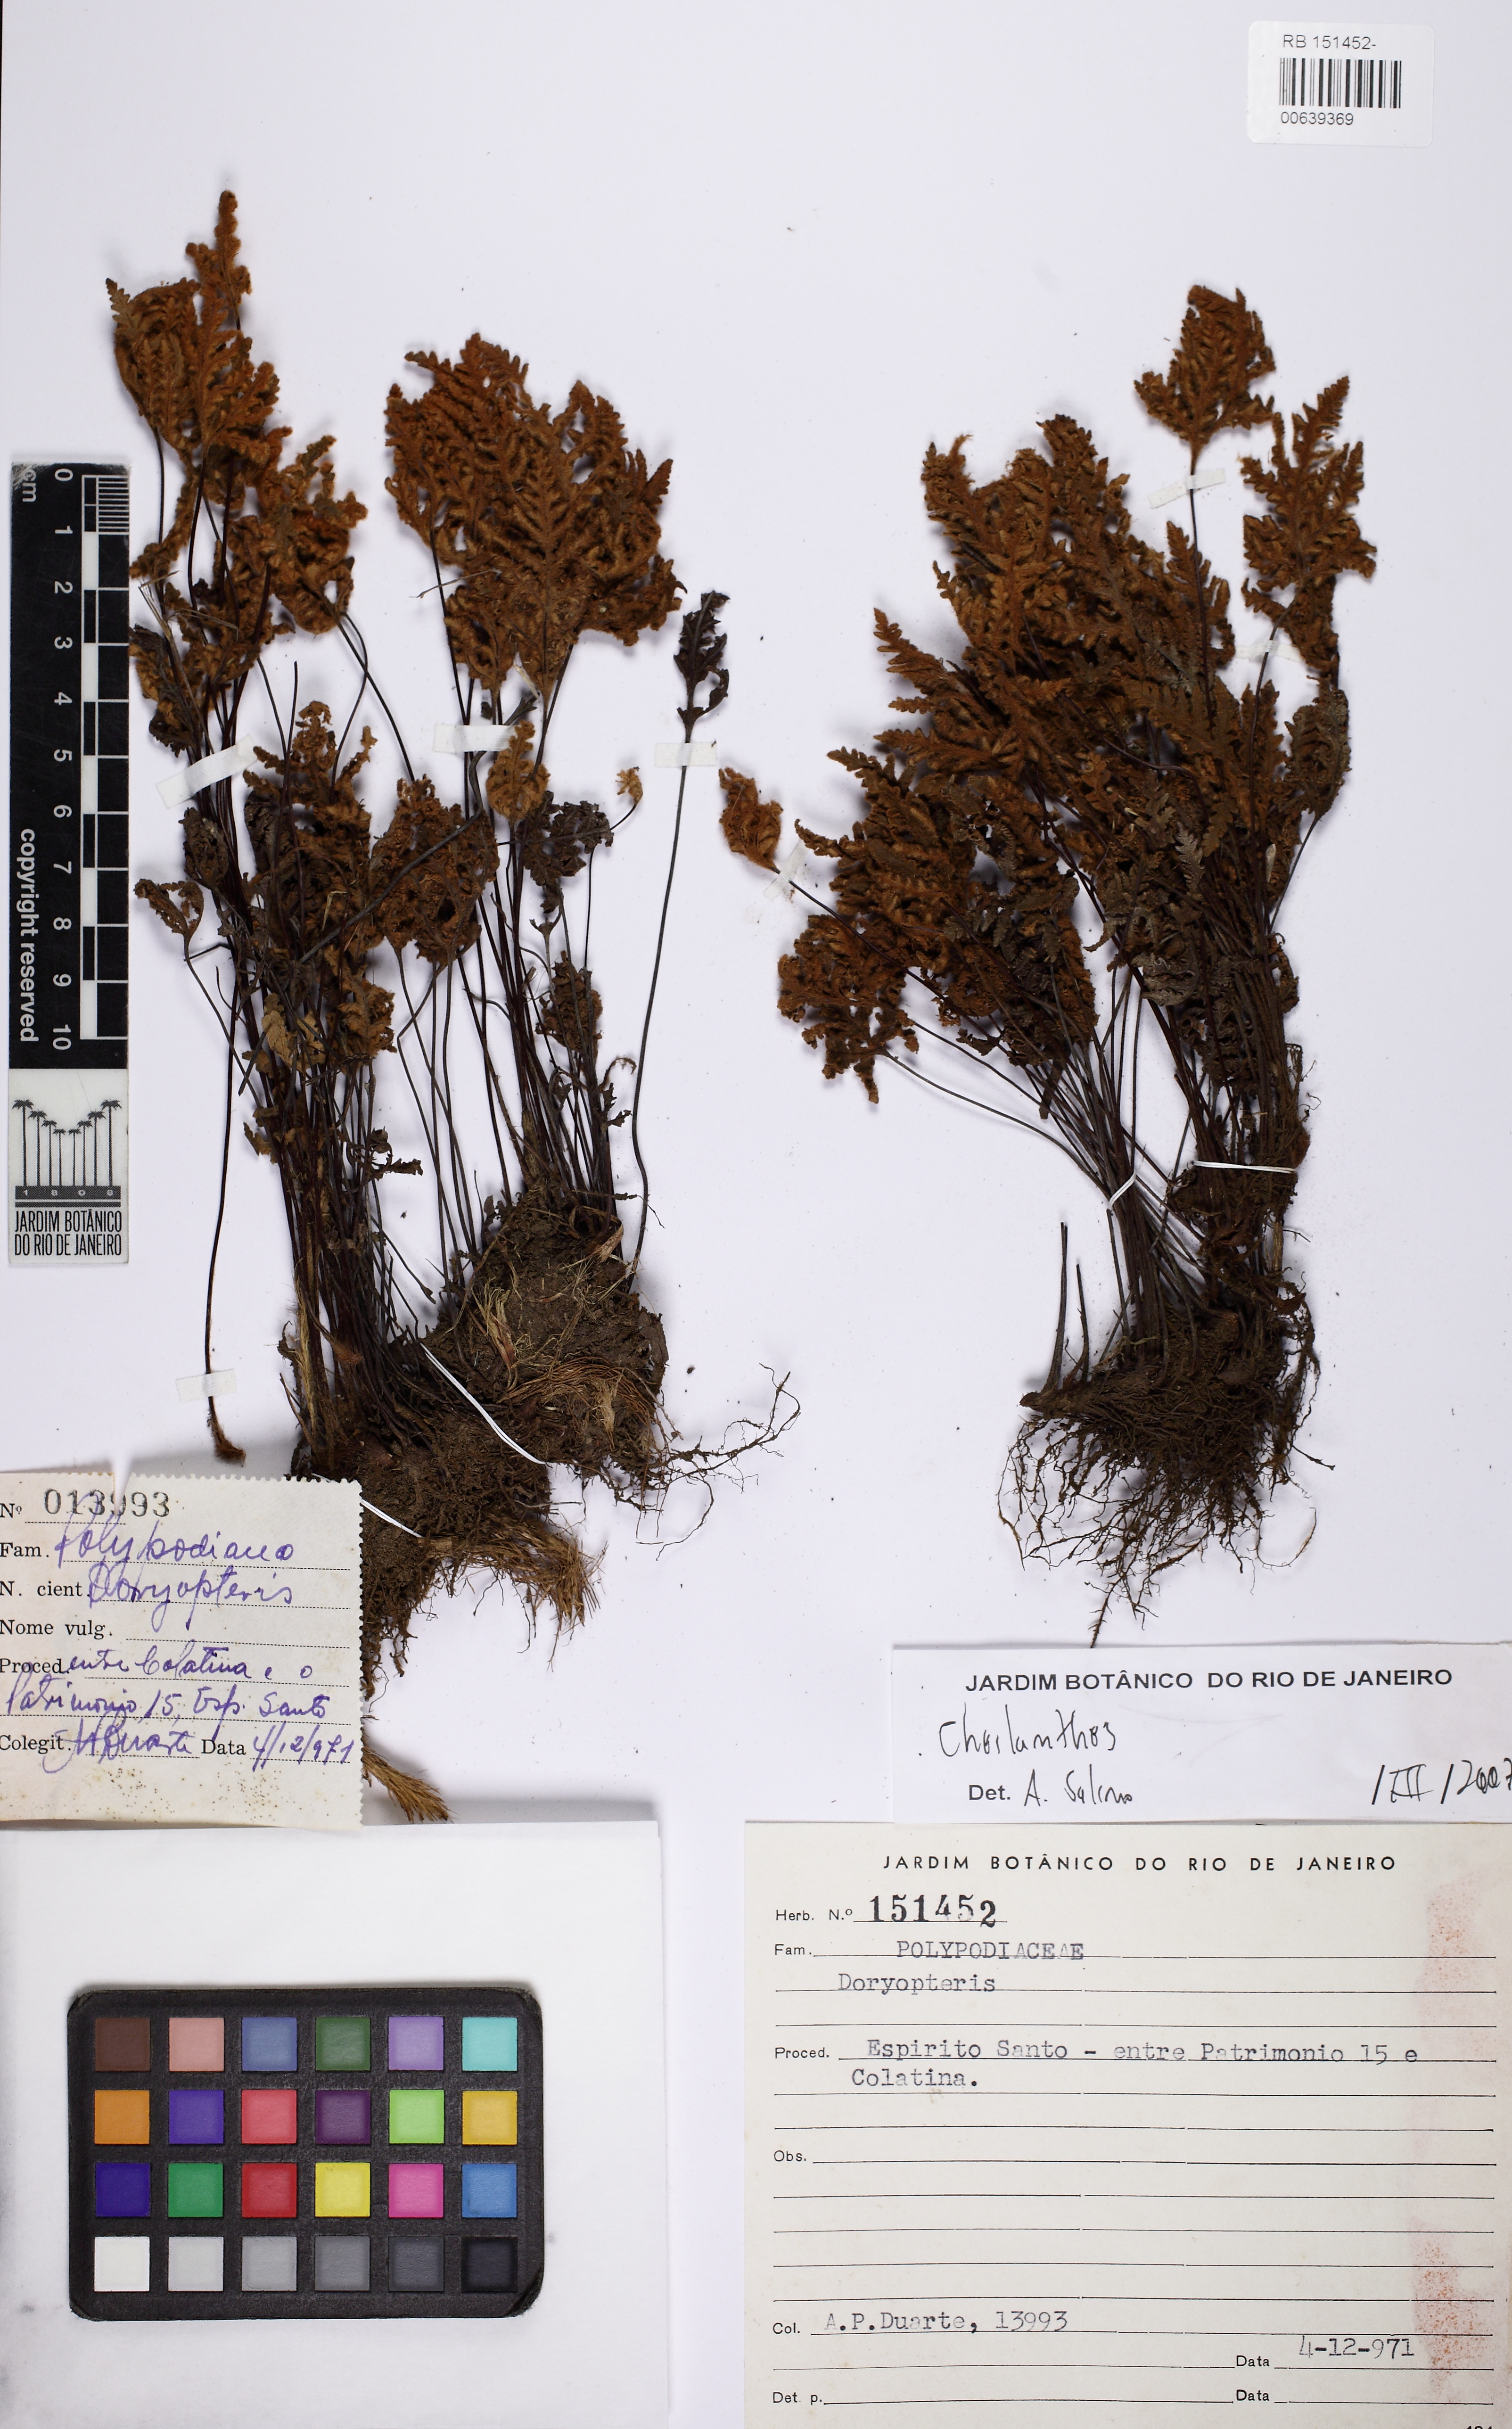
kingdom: Plantae
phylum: Tracheophyta
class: Polypodiopsida
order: Polypodiales
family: Pteridaceae
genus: Mineirella
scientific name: Mineirella geraniifolia
